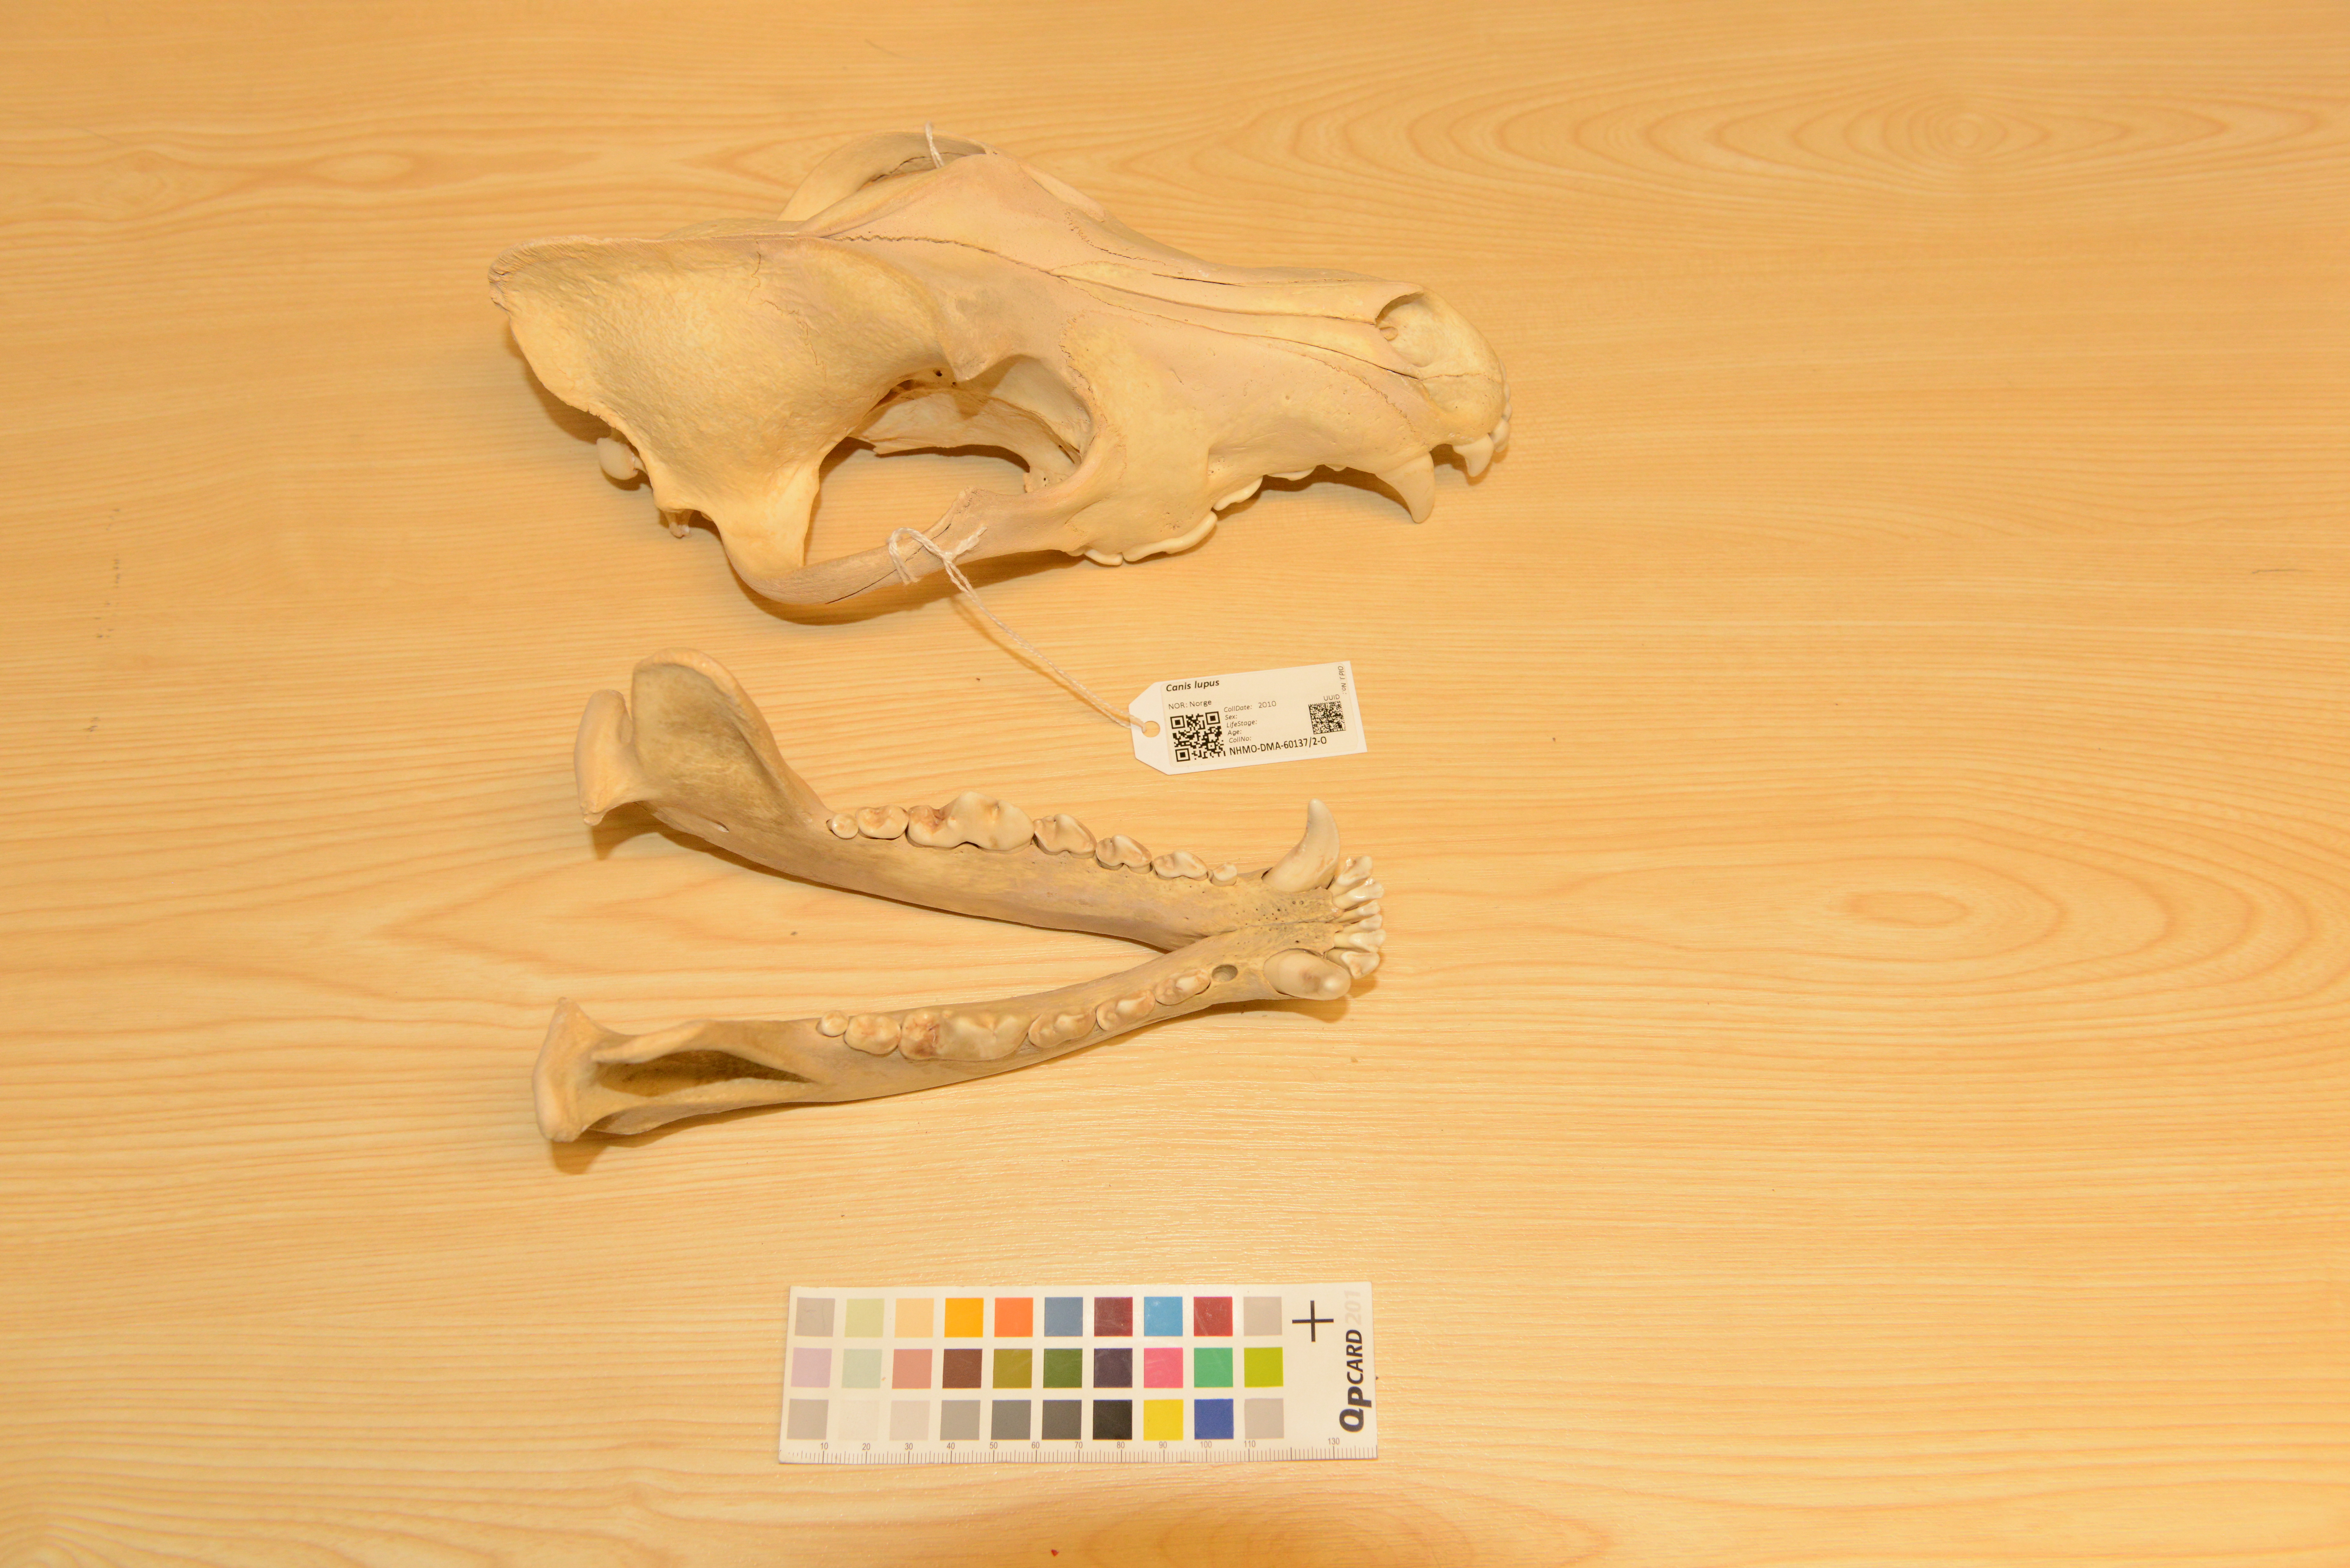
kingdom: Animalia
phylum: Chordata
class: Mammalia
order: Carnivora
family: Canidae
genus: Canis
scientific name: Canis lupus
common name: Gray wolf
